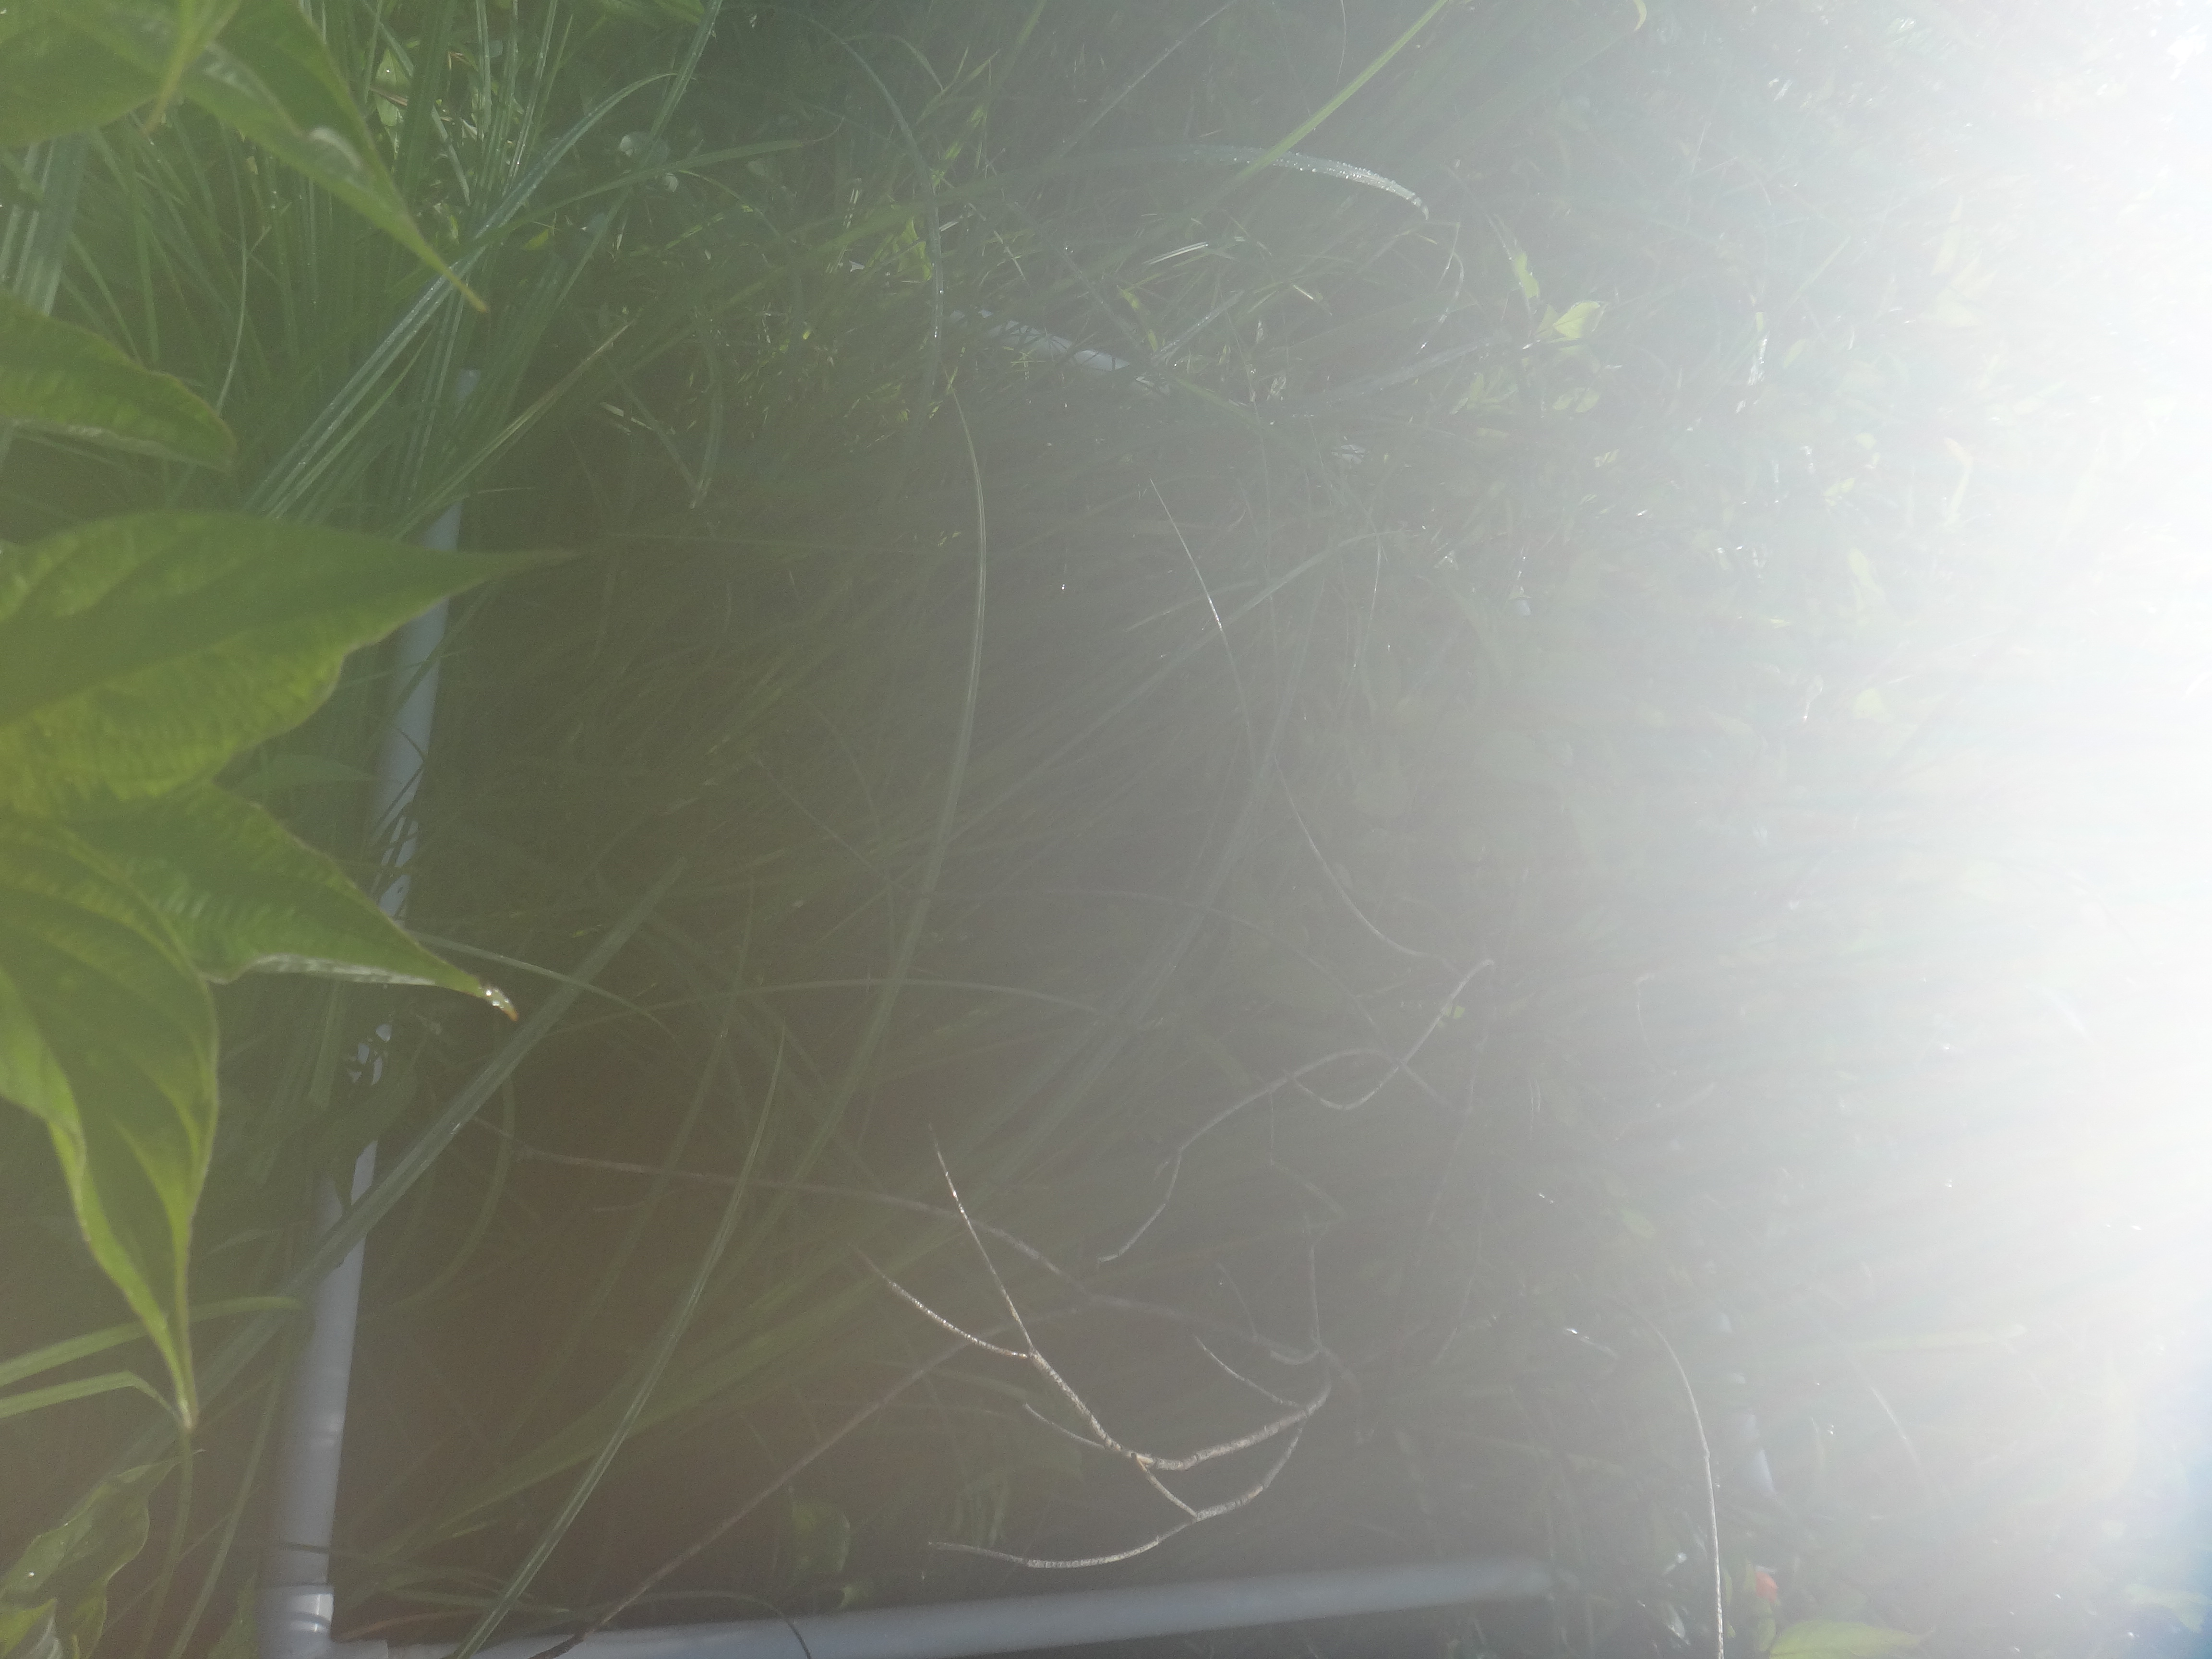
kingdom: Plantae
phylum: Tracheophyta
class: Magnoliopsida
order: Ericales
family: Balsaminaceae
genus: Impatiens
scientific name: Impatiens capensis
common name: Orange balsam
